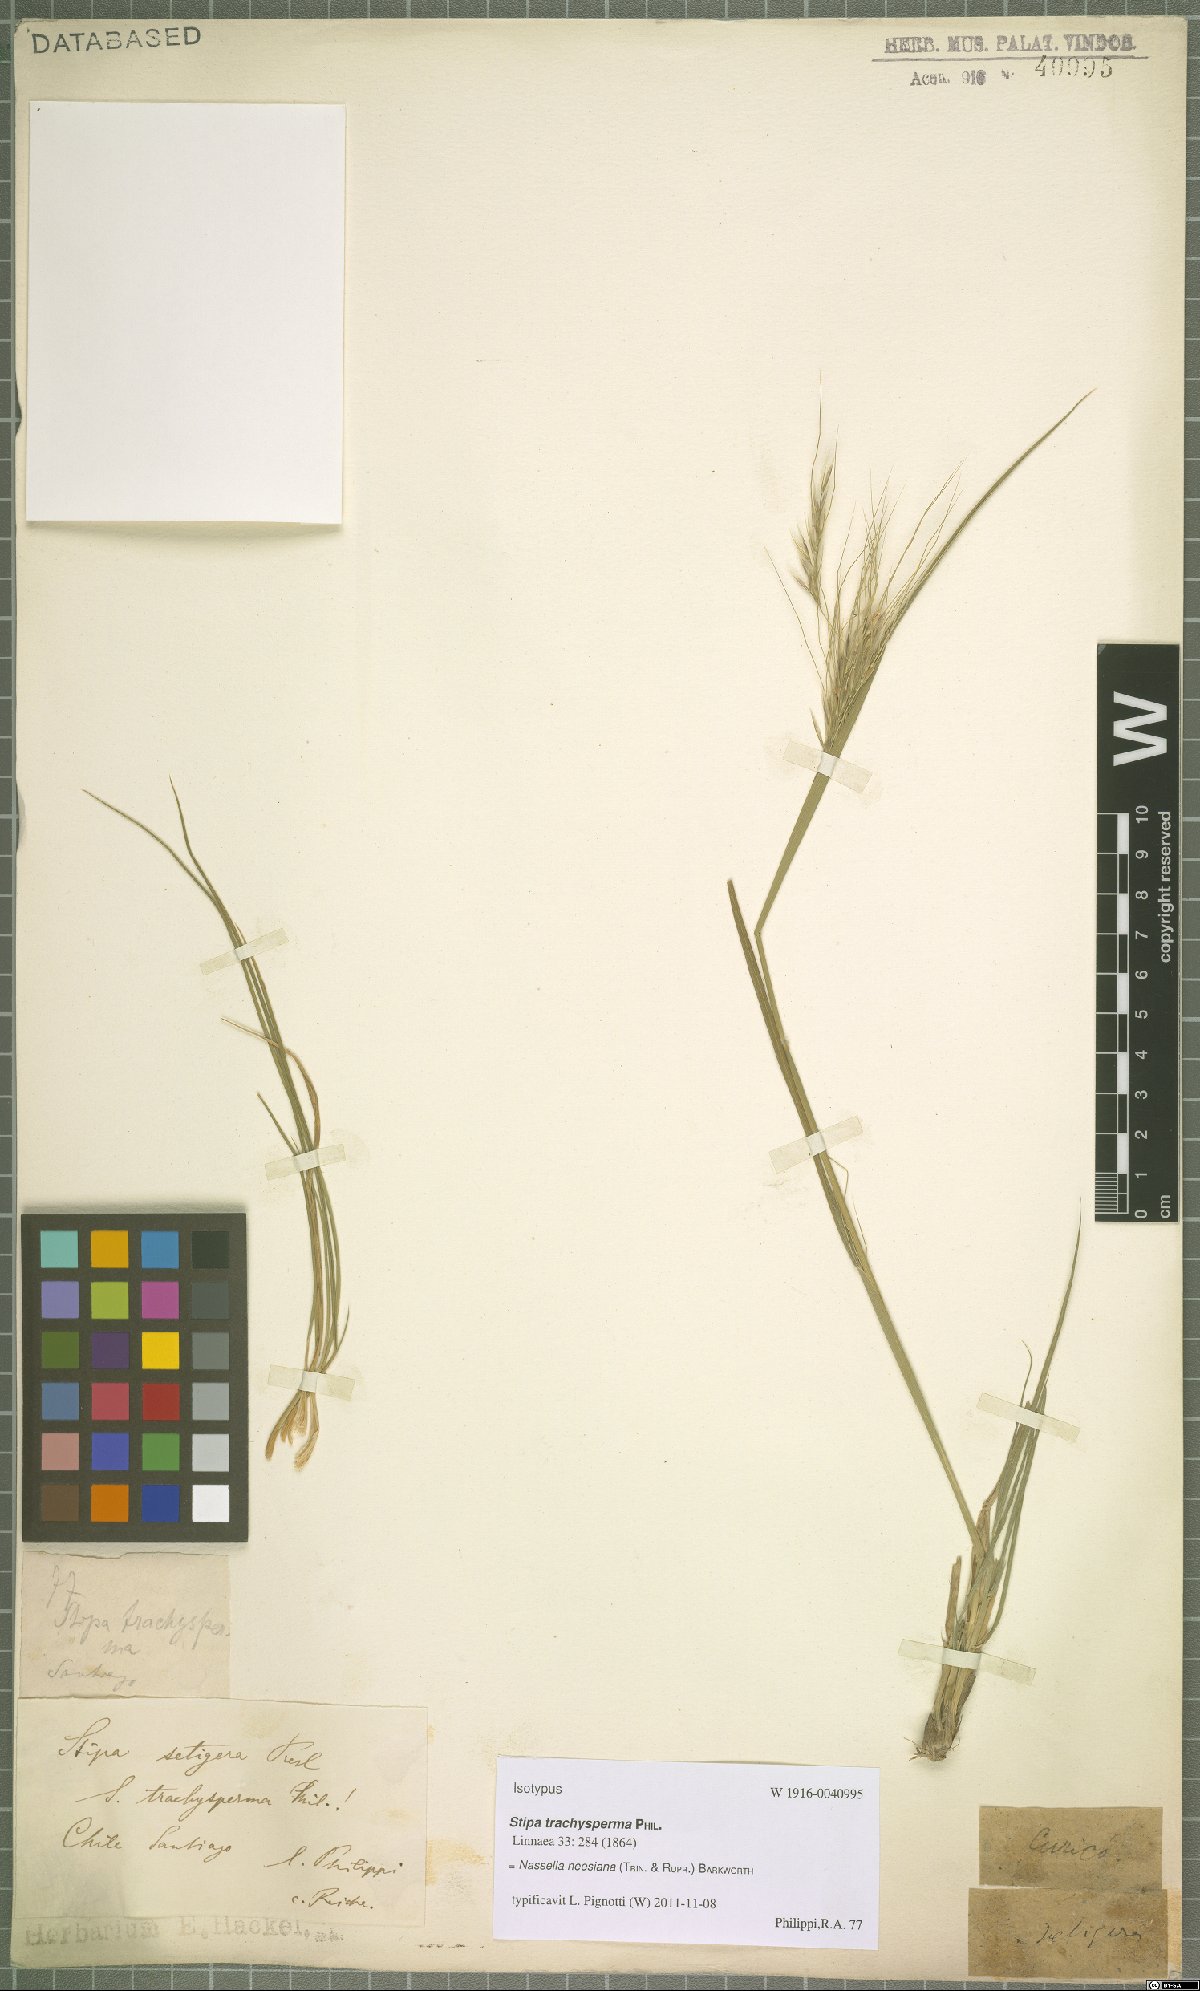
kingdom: Plantae
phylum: Tracheophyta
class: Liliopsida
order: Poales
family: Poaceae
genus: Nassella
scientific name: Nassella neesiana
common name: American needle-grass
